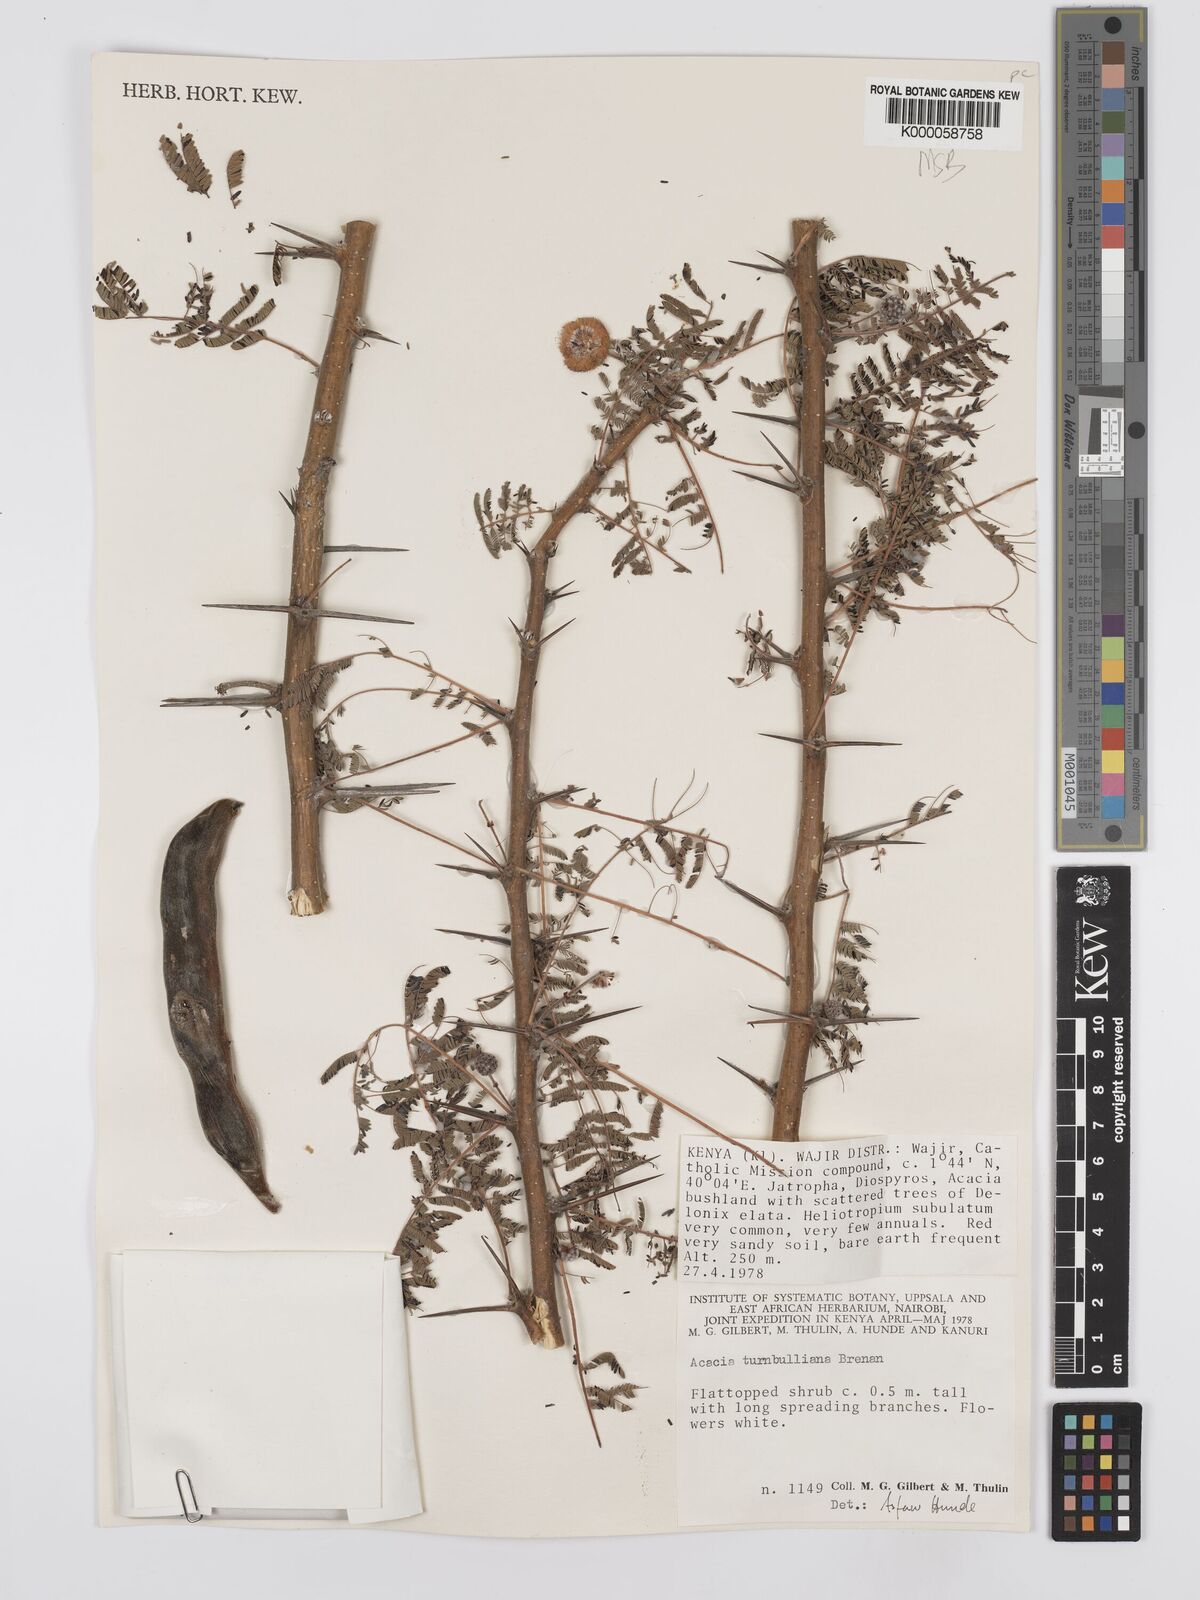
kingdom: Plantae
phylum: Tracheophyta
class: Magnoliopsida
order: Fabales
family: Fabaceae
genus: Vachellia
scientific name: Vachellia edgeworthii
